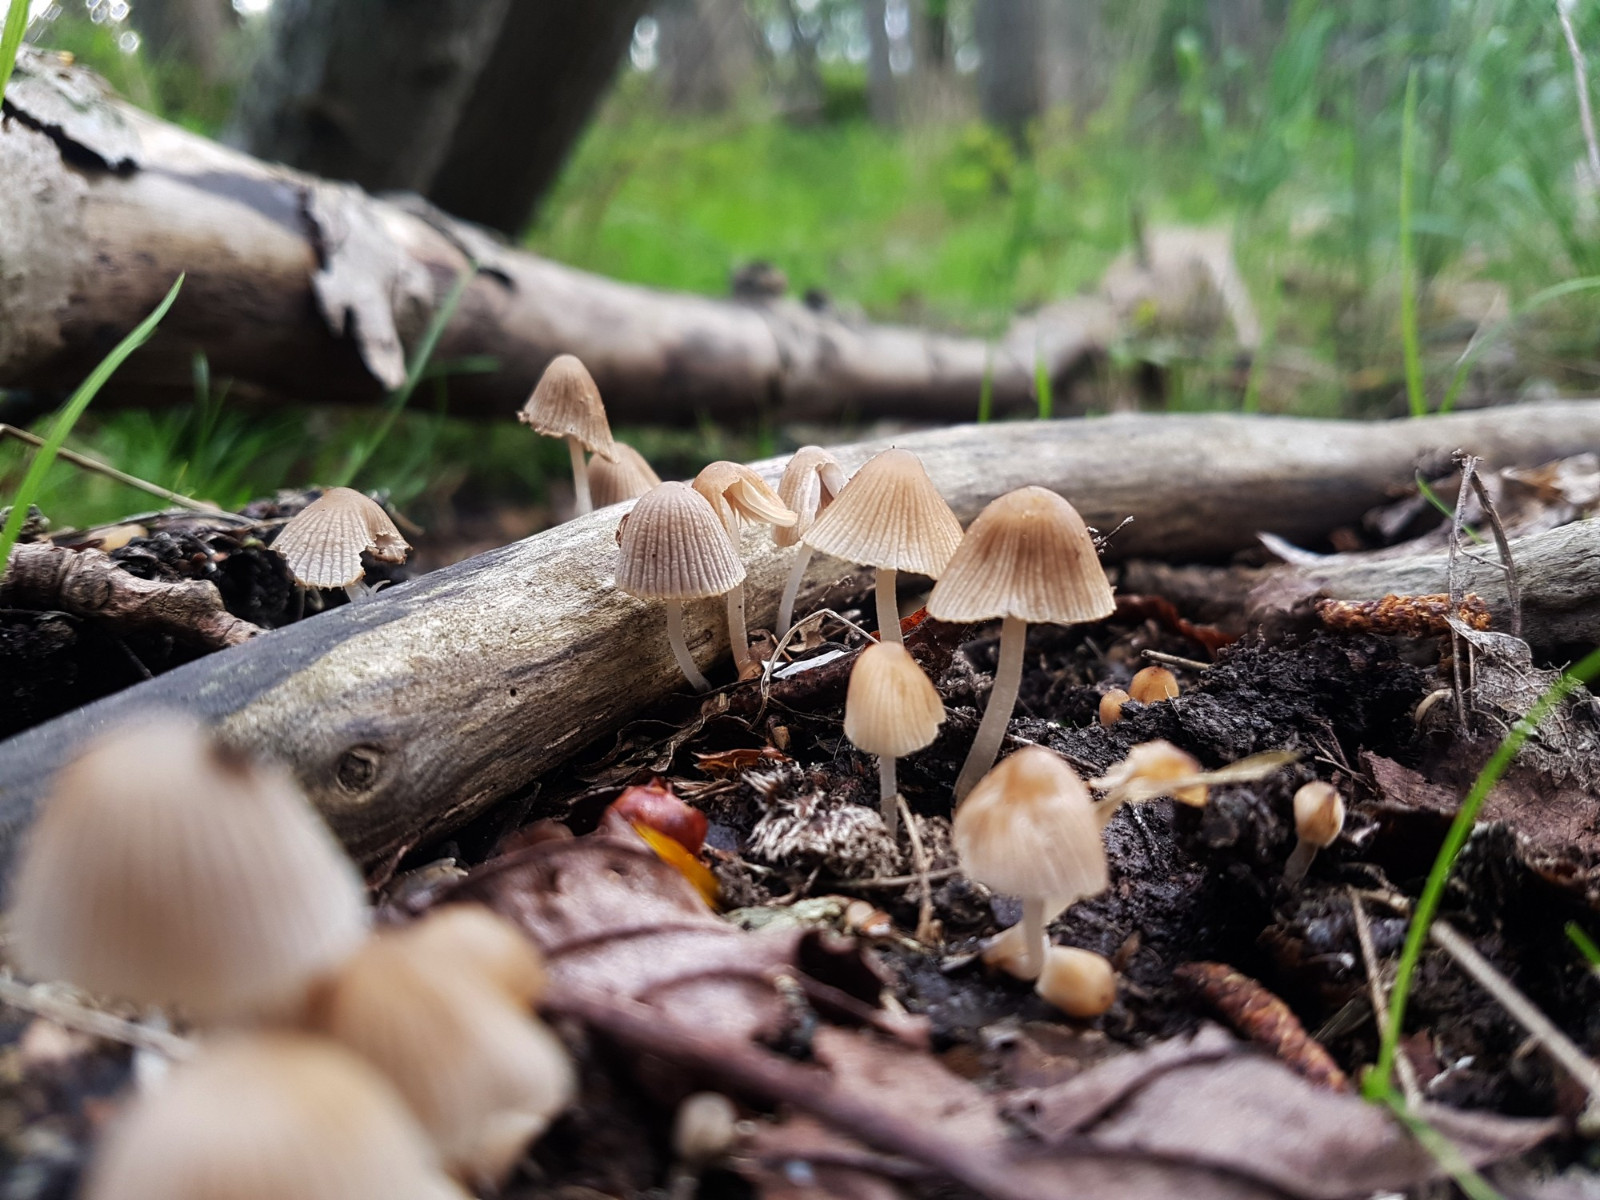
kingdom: Fungi
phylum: Basidiomycota
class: Agaricomycetes
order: Agaricales
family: Psathyrellaceae
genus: Coprinellus
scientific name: Coprinellus disseminatus
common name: bredsået blækhat
